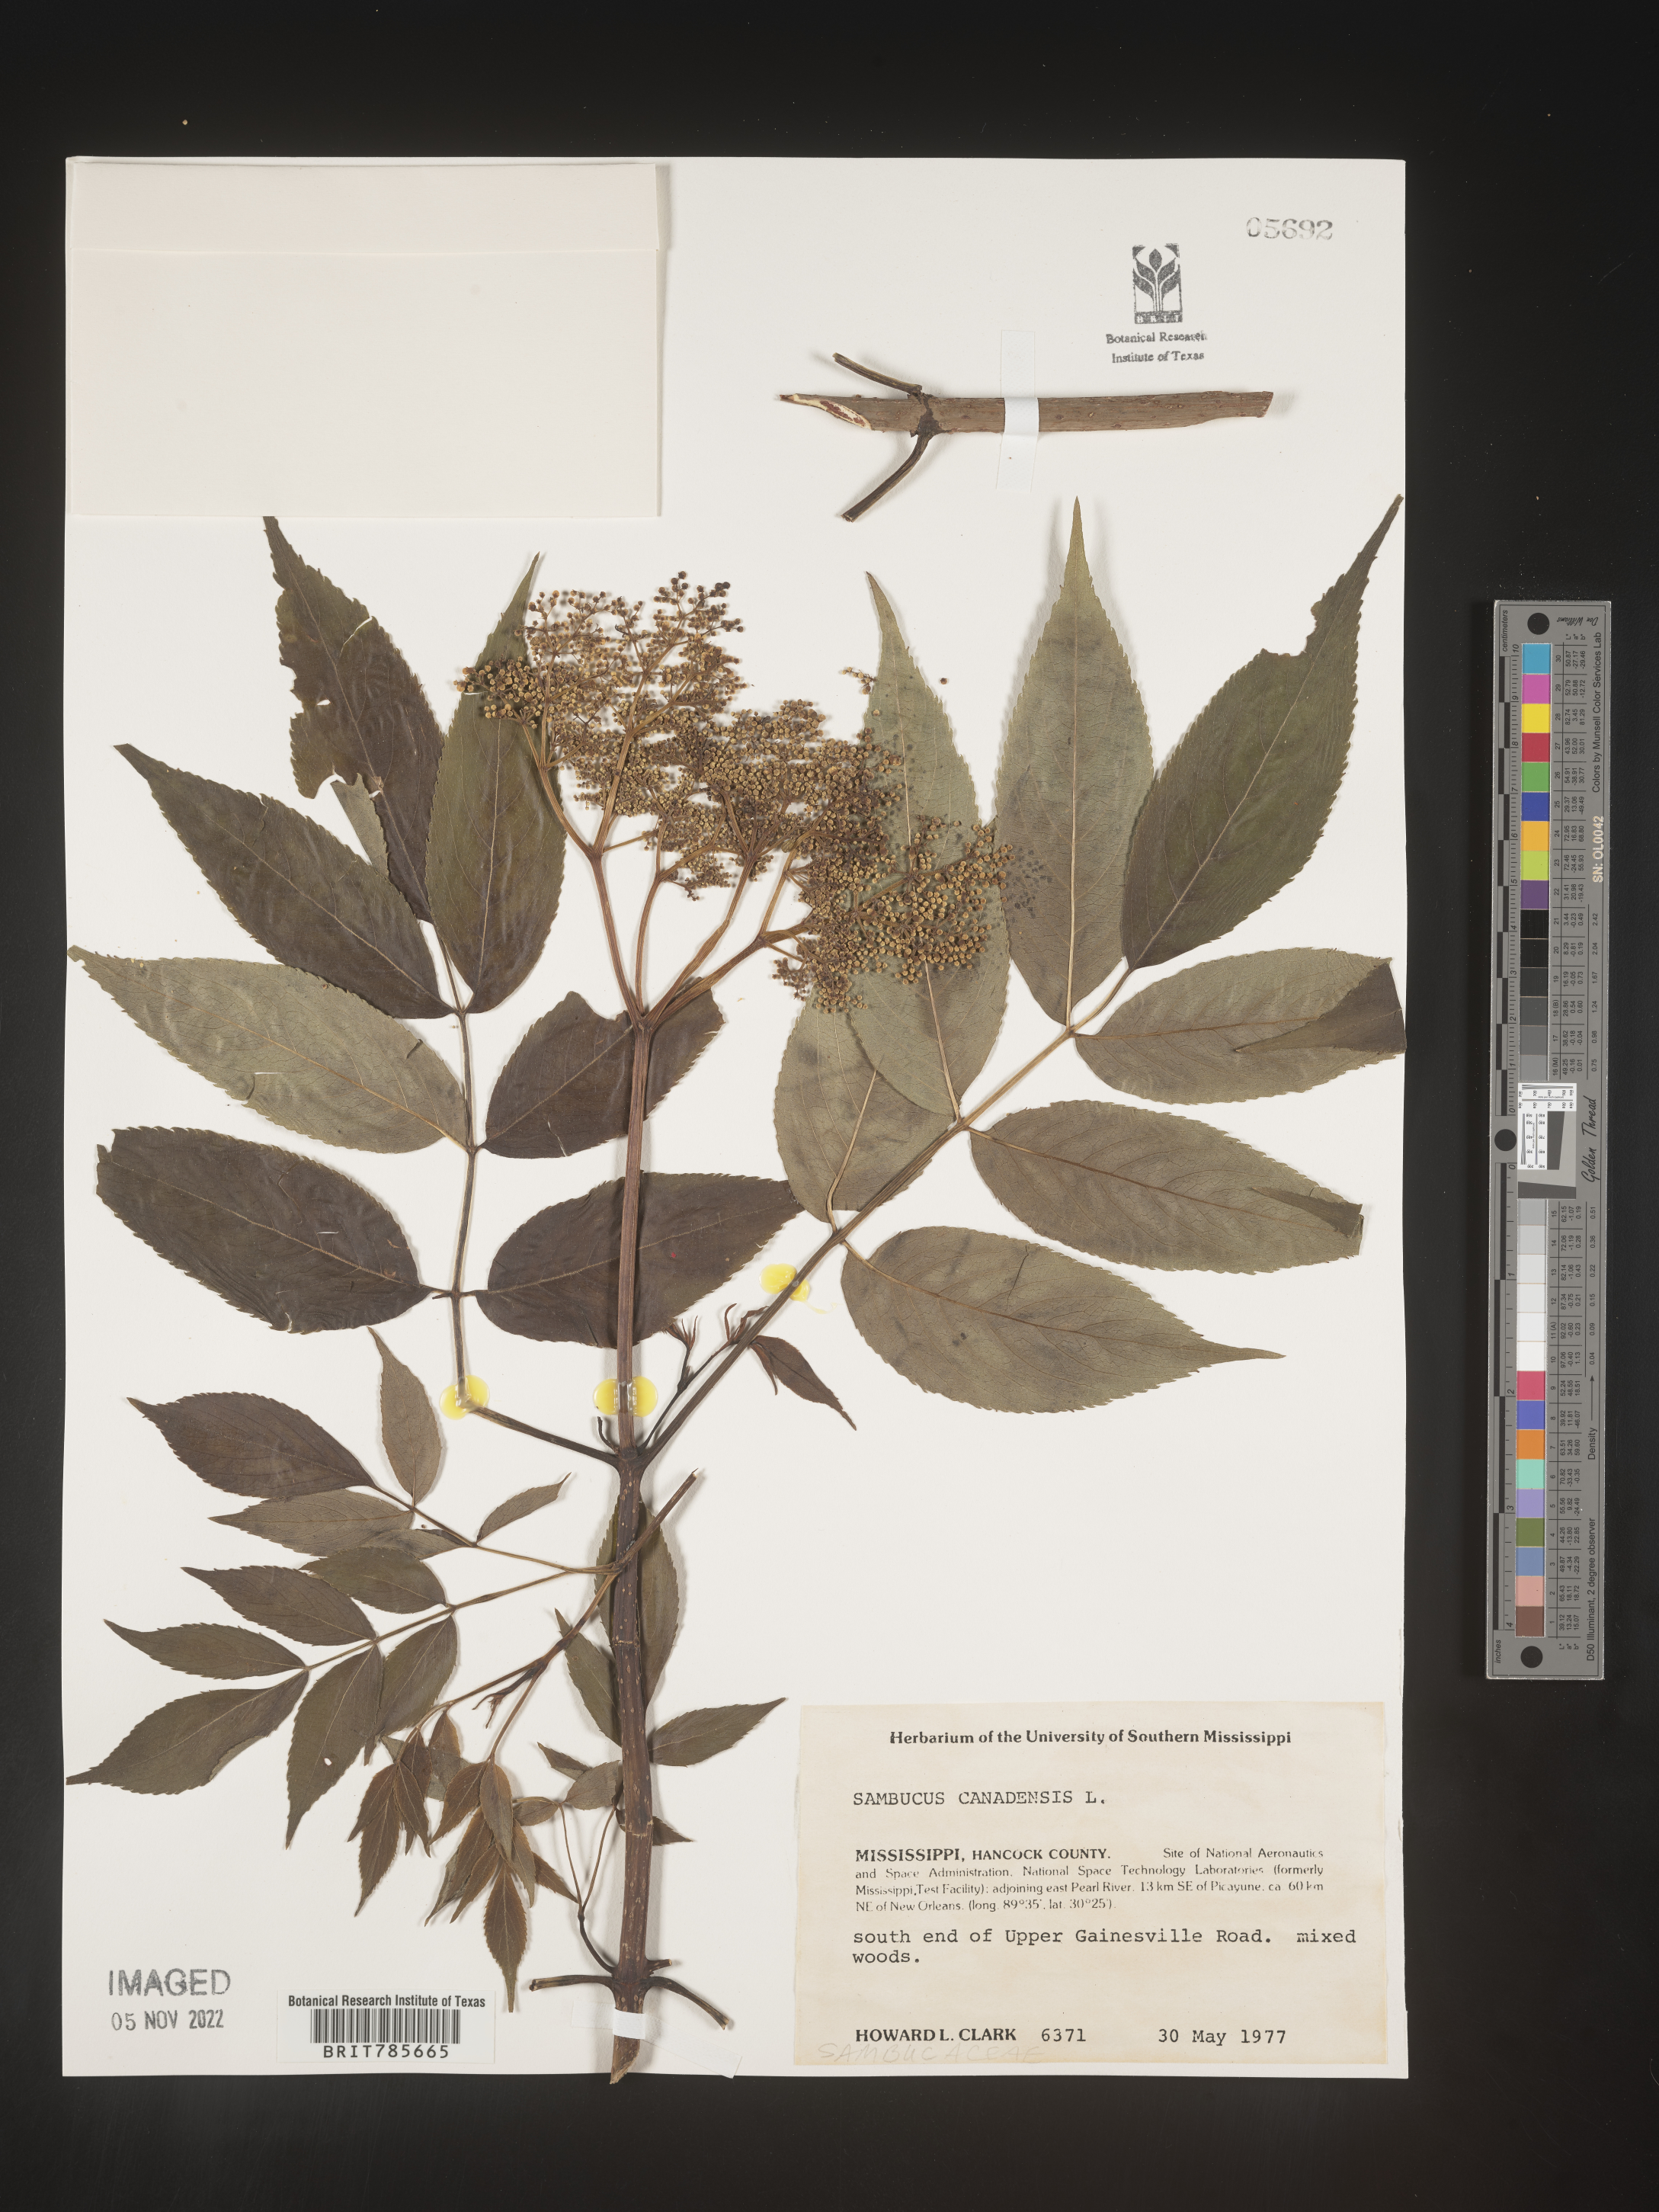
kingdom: Plantae
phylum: Tracheophyta
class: Magnoliopsida
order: Dipsacales
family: Viburnaceae
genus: Sambucus
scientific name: Sambucus canadensis
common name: American elder
